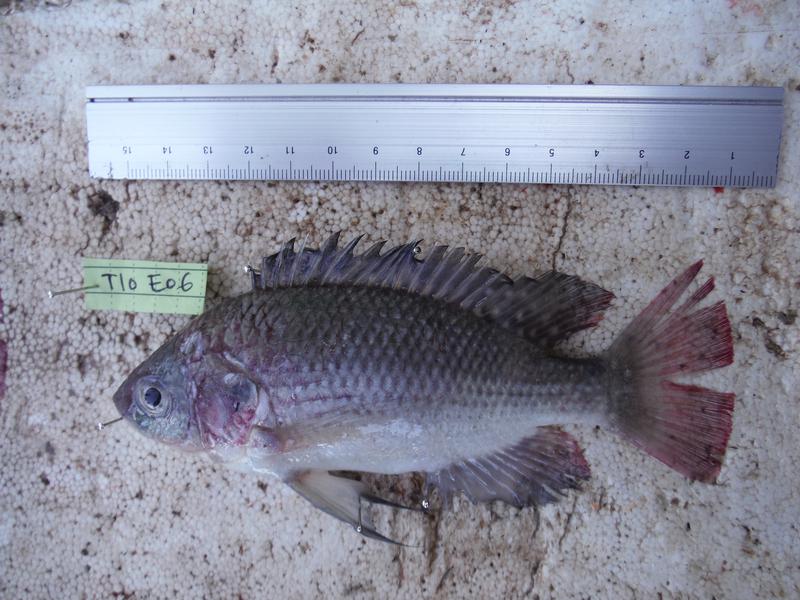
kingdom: Animalia
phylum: Chordata
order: Perciformes
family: Cichlidae
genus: Oreochromis
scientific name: Oreochromis esculentus
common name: Carp
